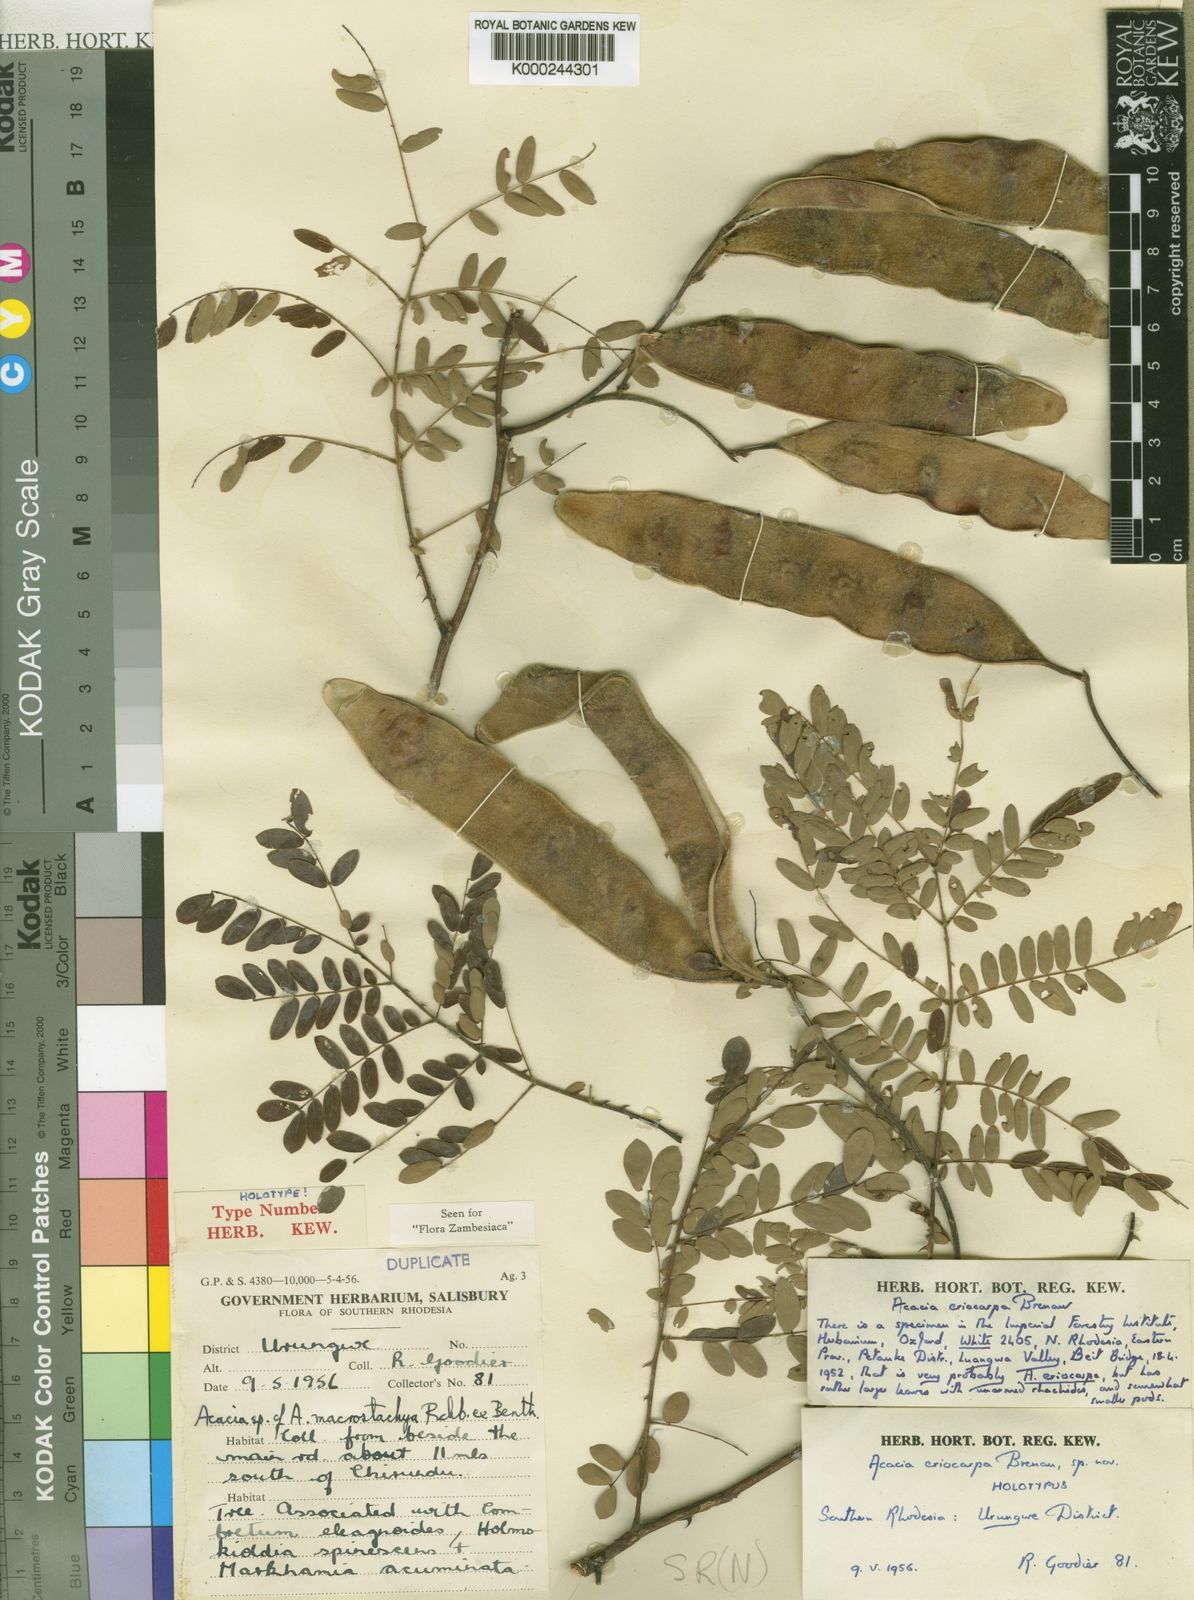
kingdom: Plantae
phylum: Tracheophyta
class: Magnoliopsida
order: Fabales
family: Fabaceae
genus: Senegalia
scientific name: Senegalia eriocarpa
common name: Woolly-pod acacia
